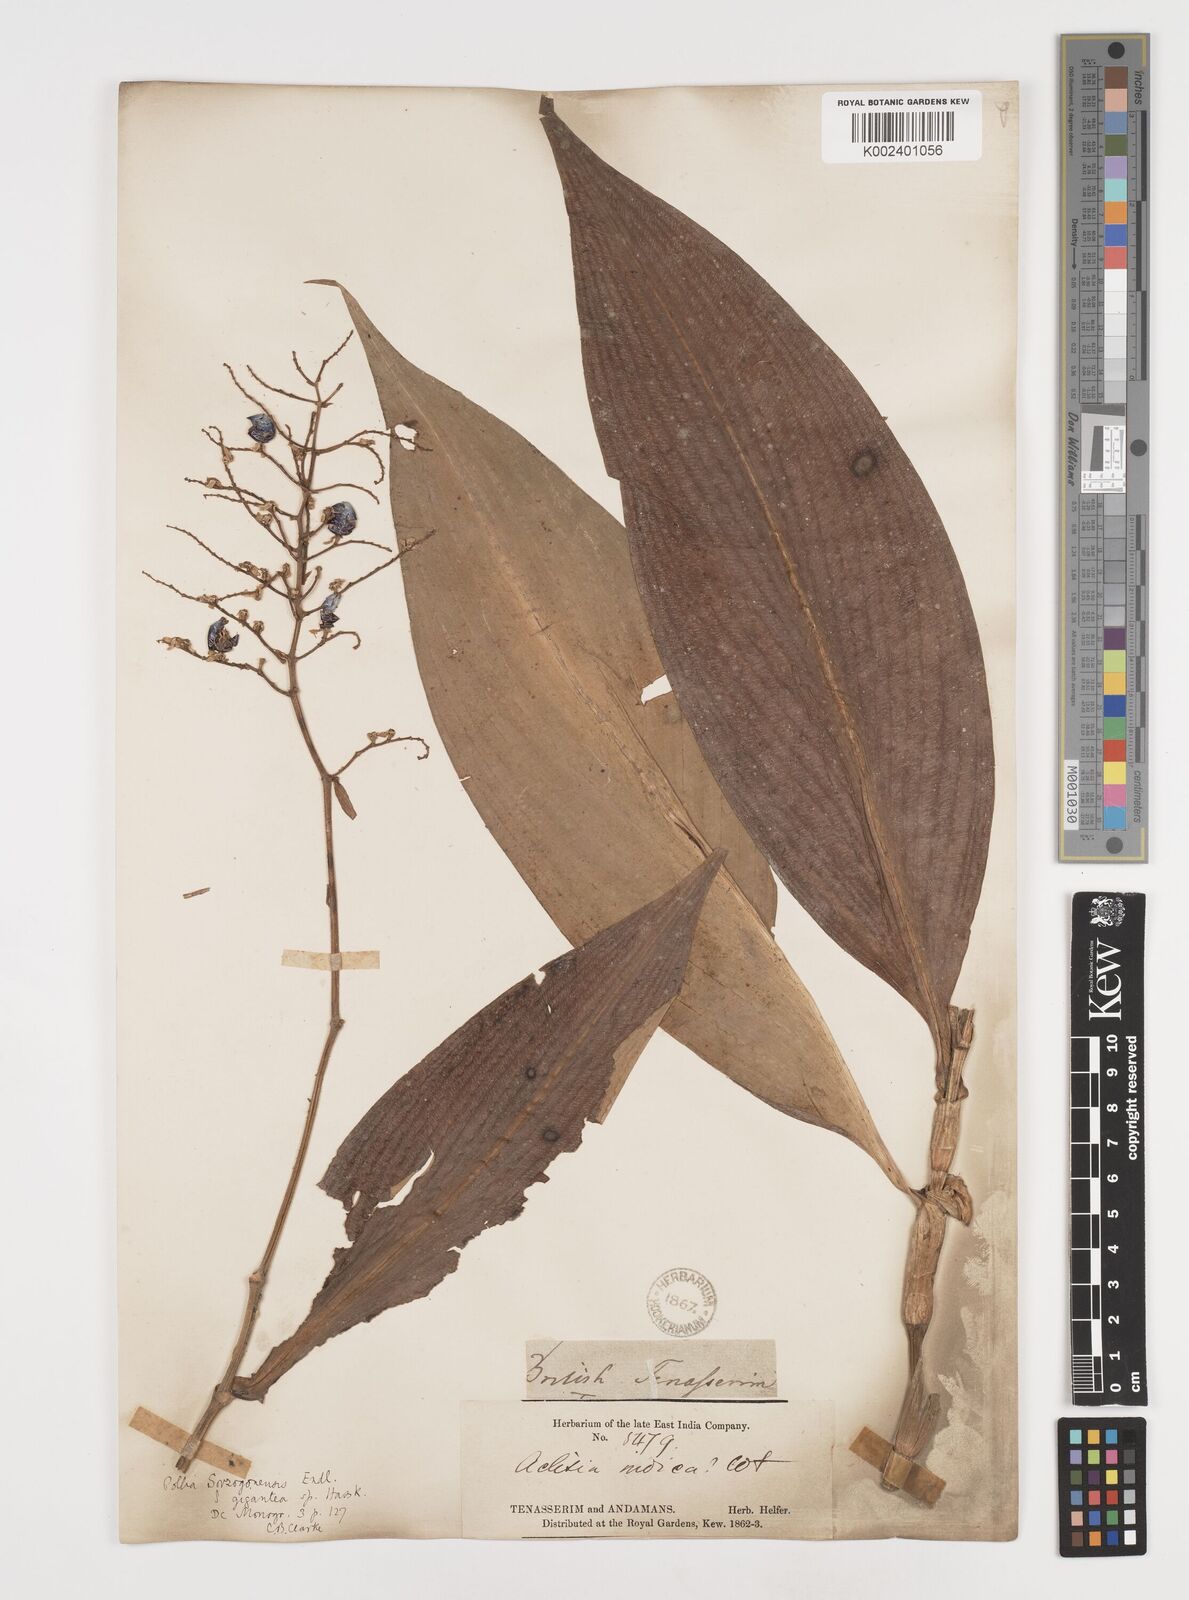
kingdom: Plantae
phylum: Tracheophyta
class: Liliopsida
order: Commelinales
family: Commelinaceae
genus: Pollia
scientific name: Pollia secundiflora
